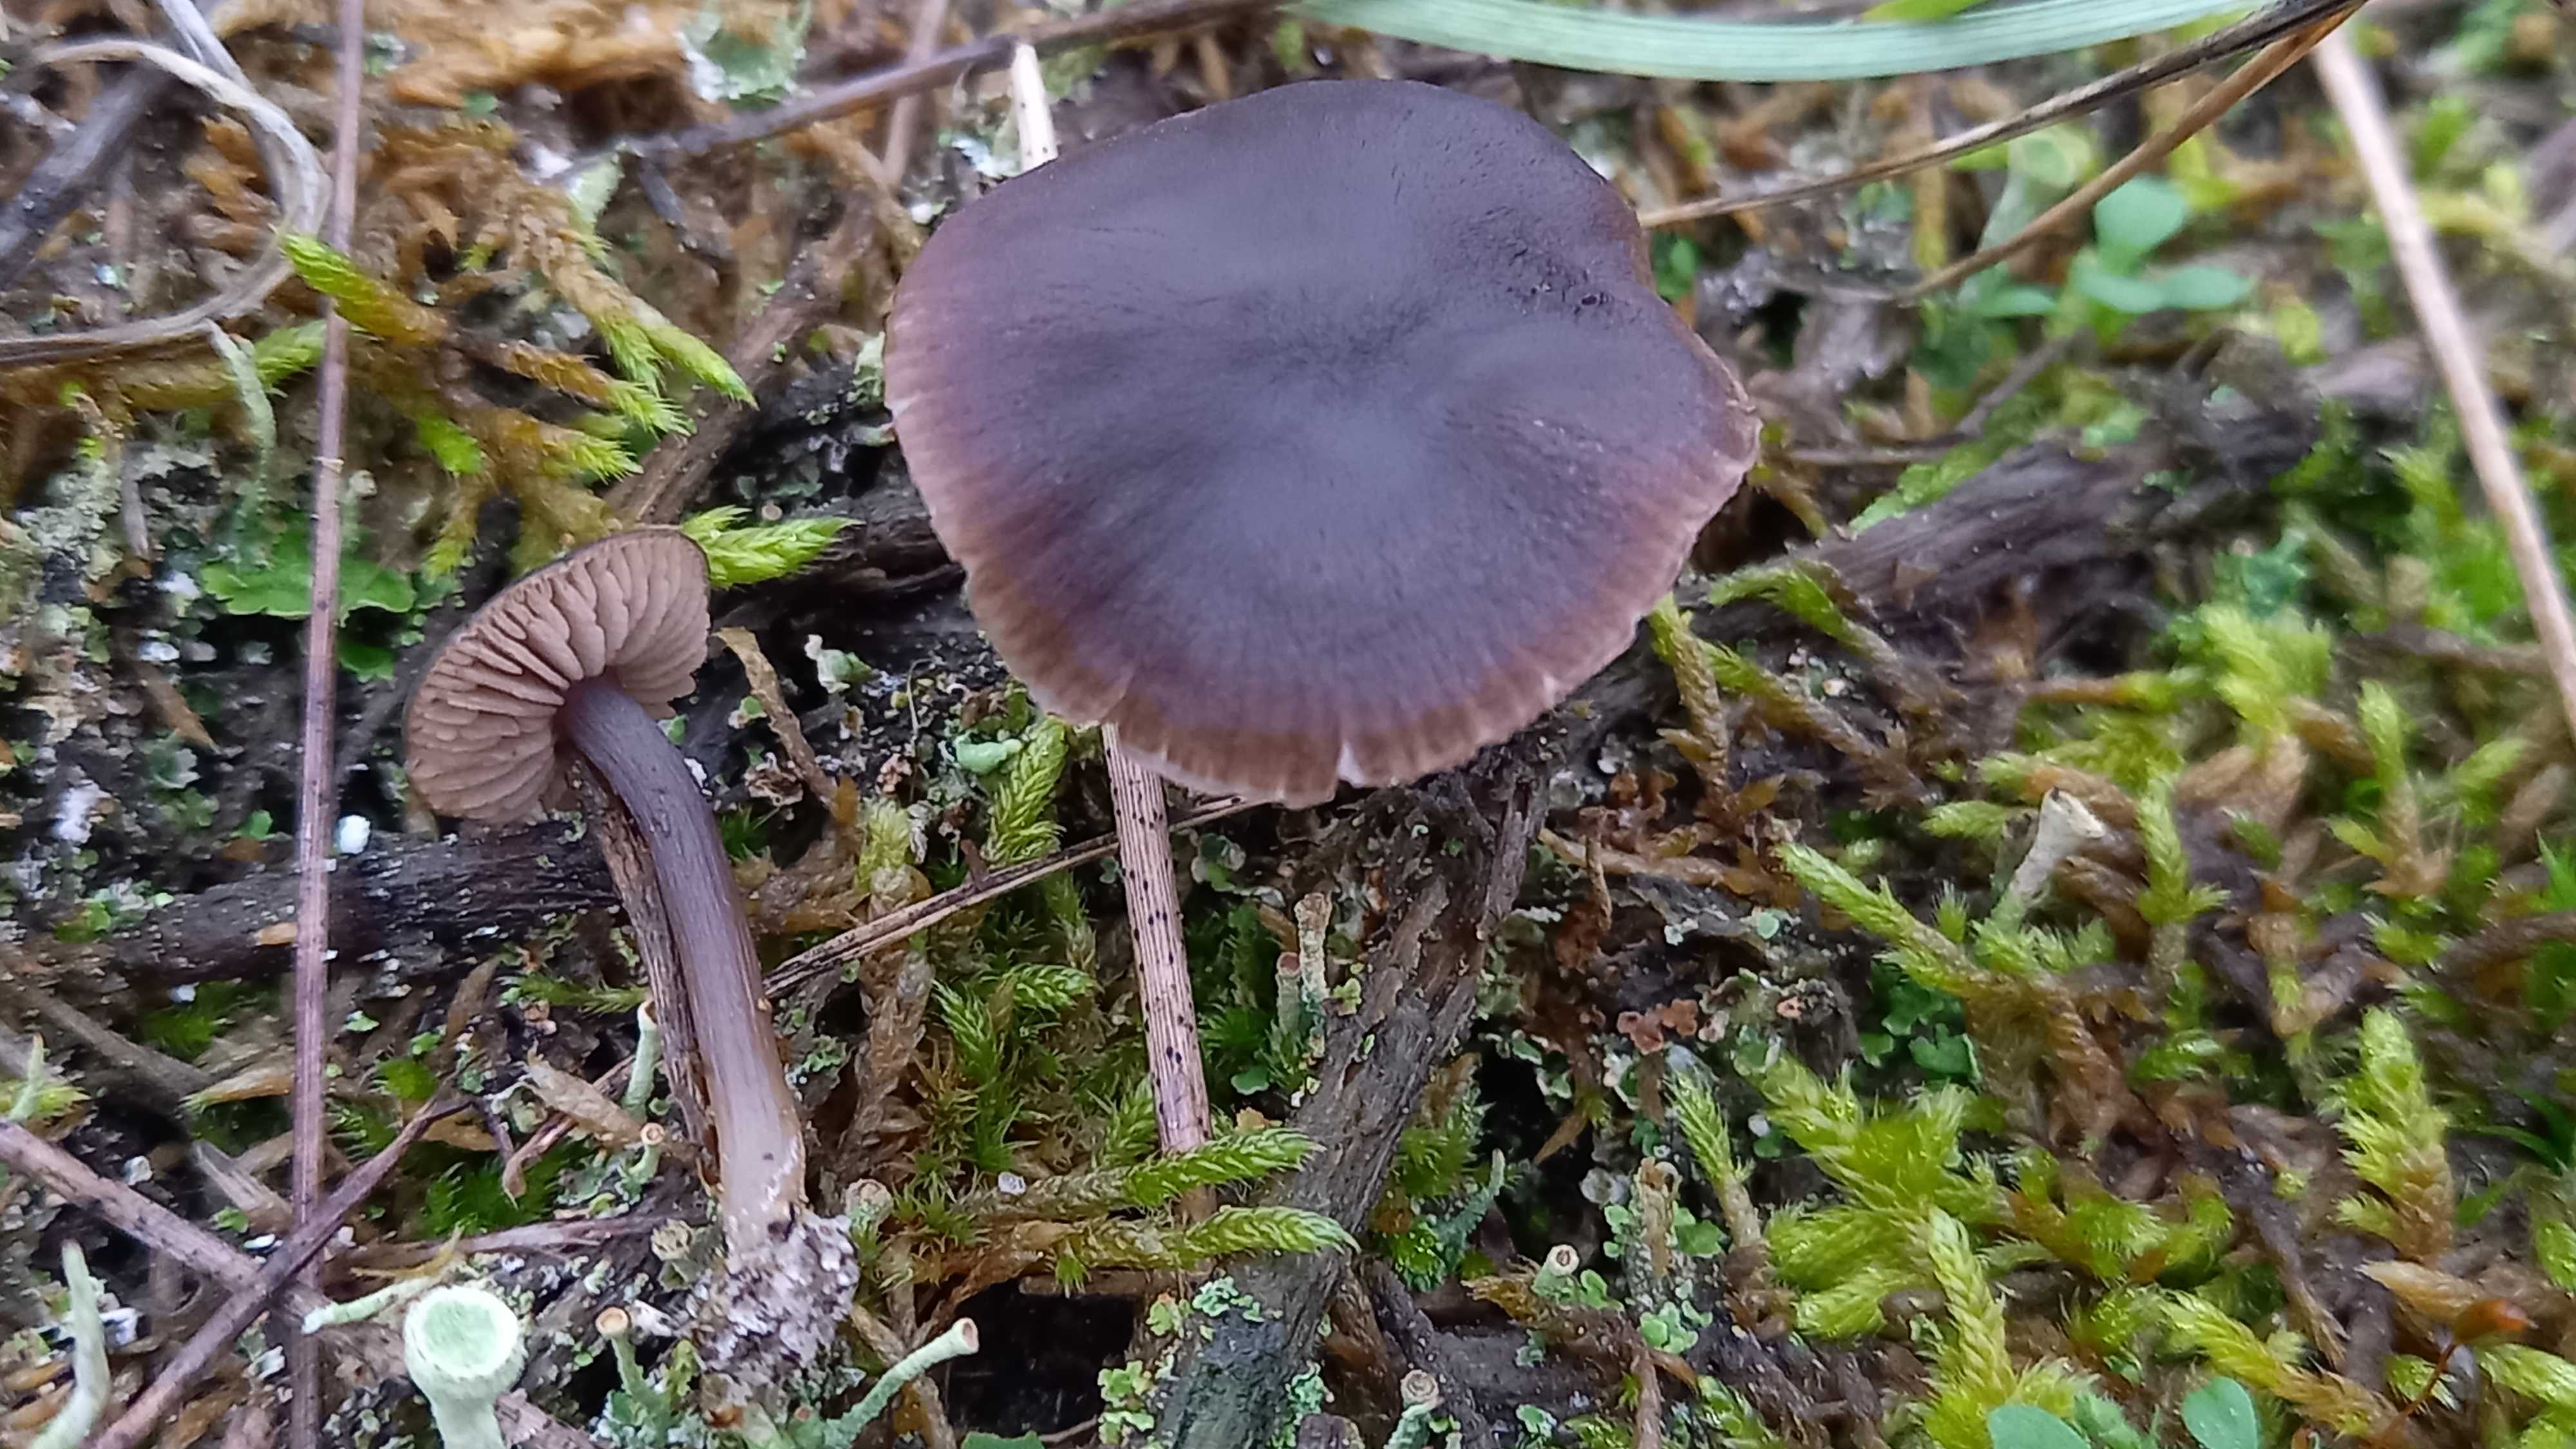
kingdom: Fungi
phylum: Basidiomycota
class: Agaricomycetes
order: Agaricales
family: Entolomataceae
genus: Entoloma
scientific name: Entoloma vindobonense
